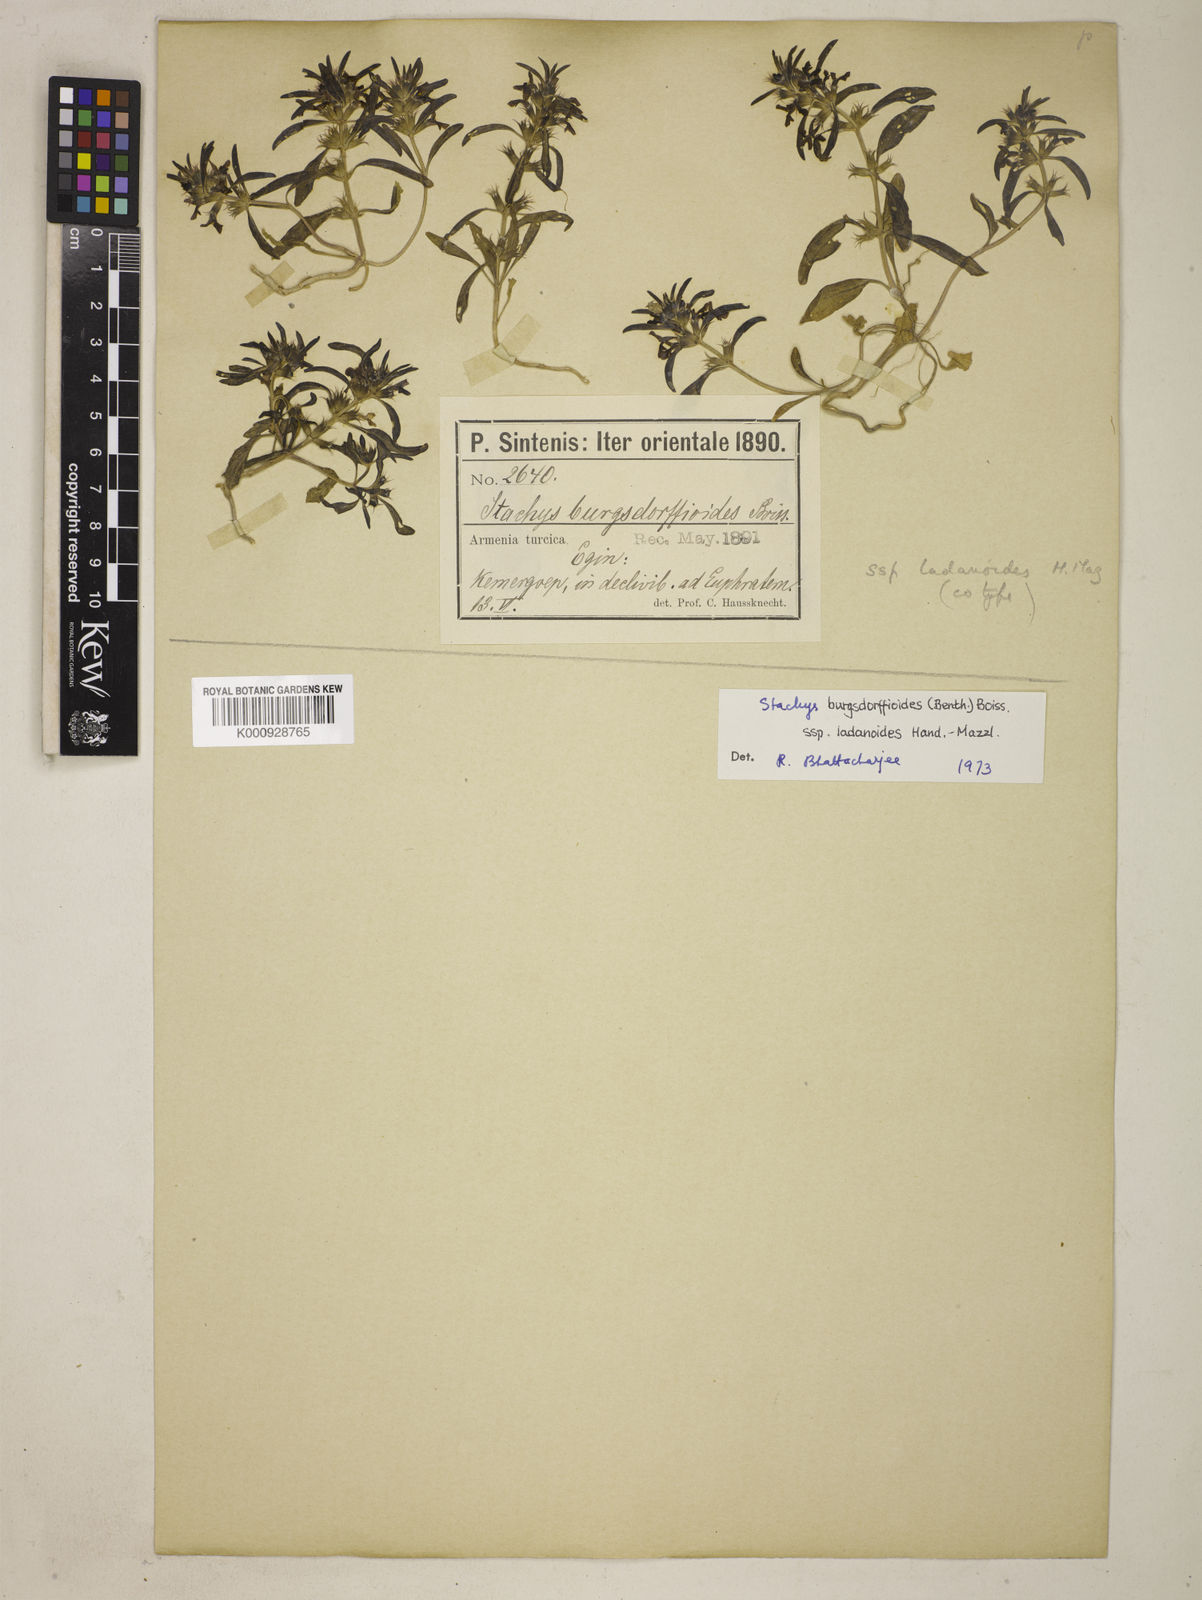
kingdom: Plantae
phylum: Tracheophyta
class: Magnoliopsida
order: Lamiales
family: Lamiaceae
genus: Stachys
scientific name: Stachys burgsdorffioides
